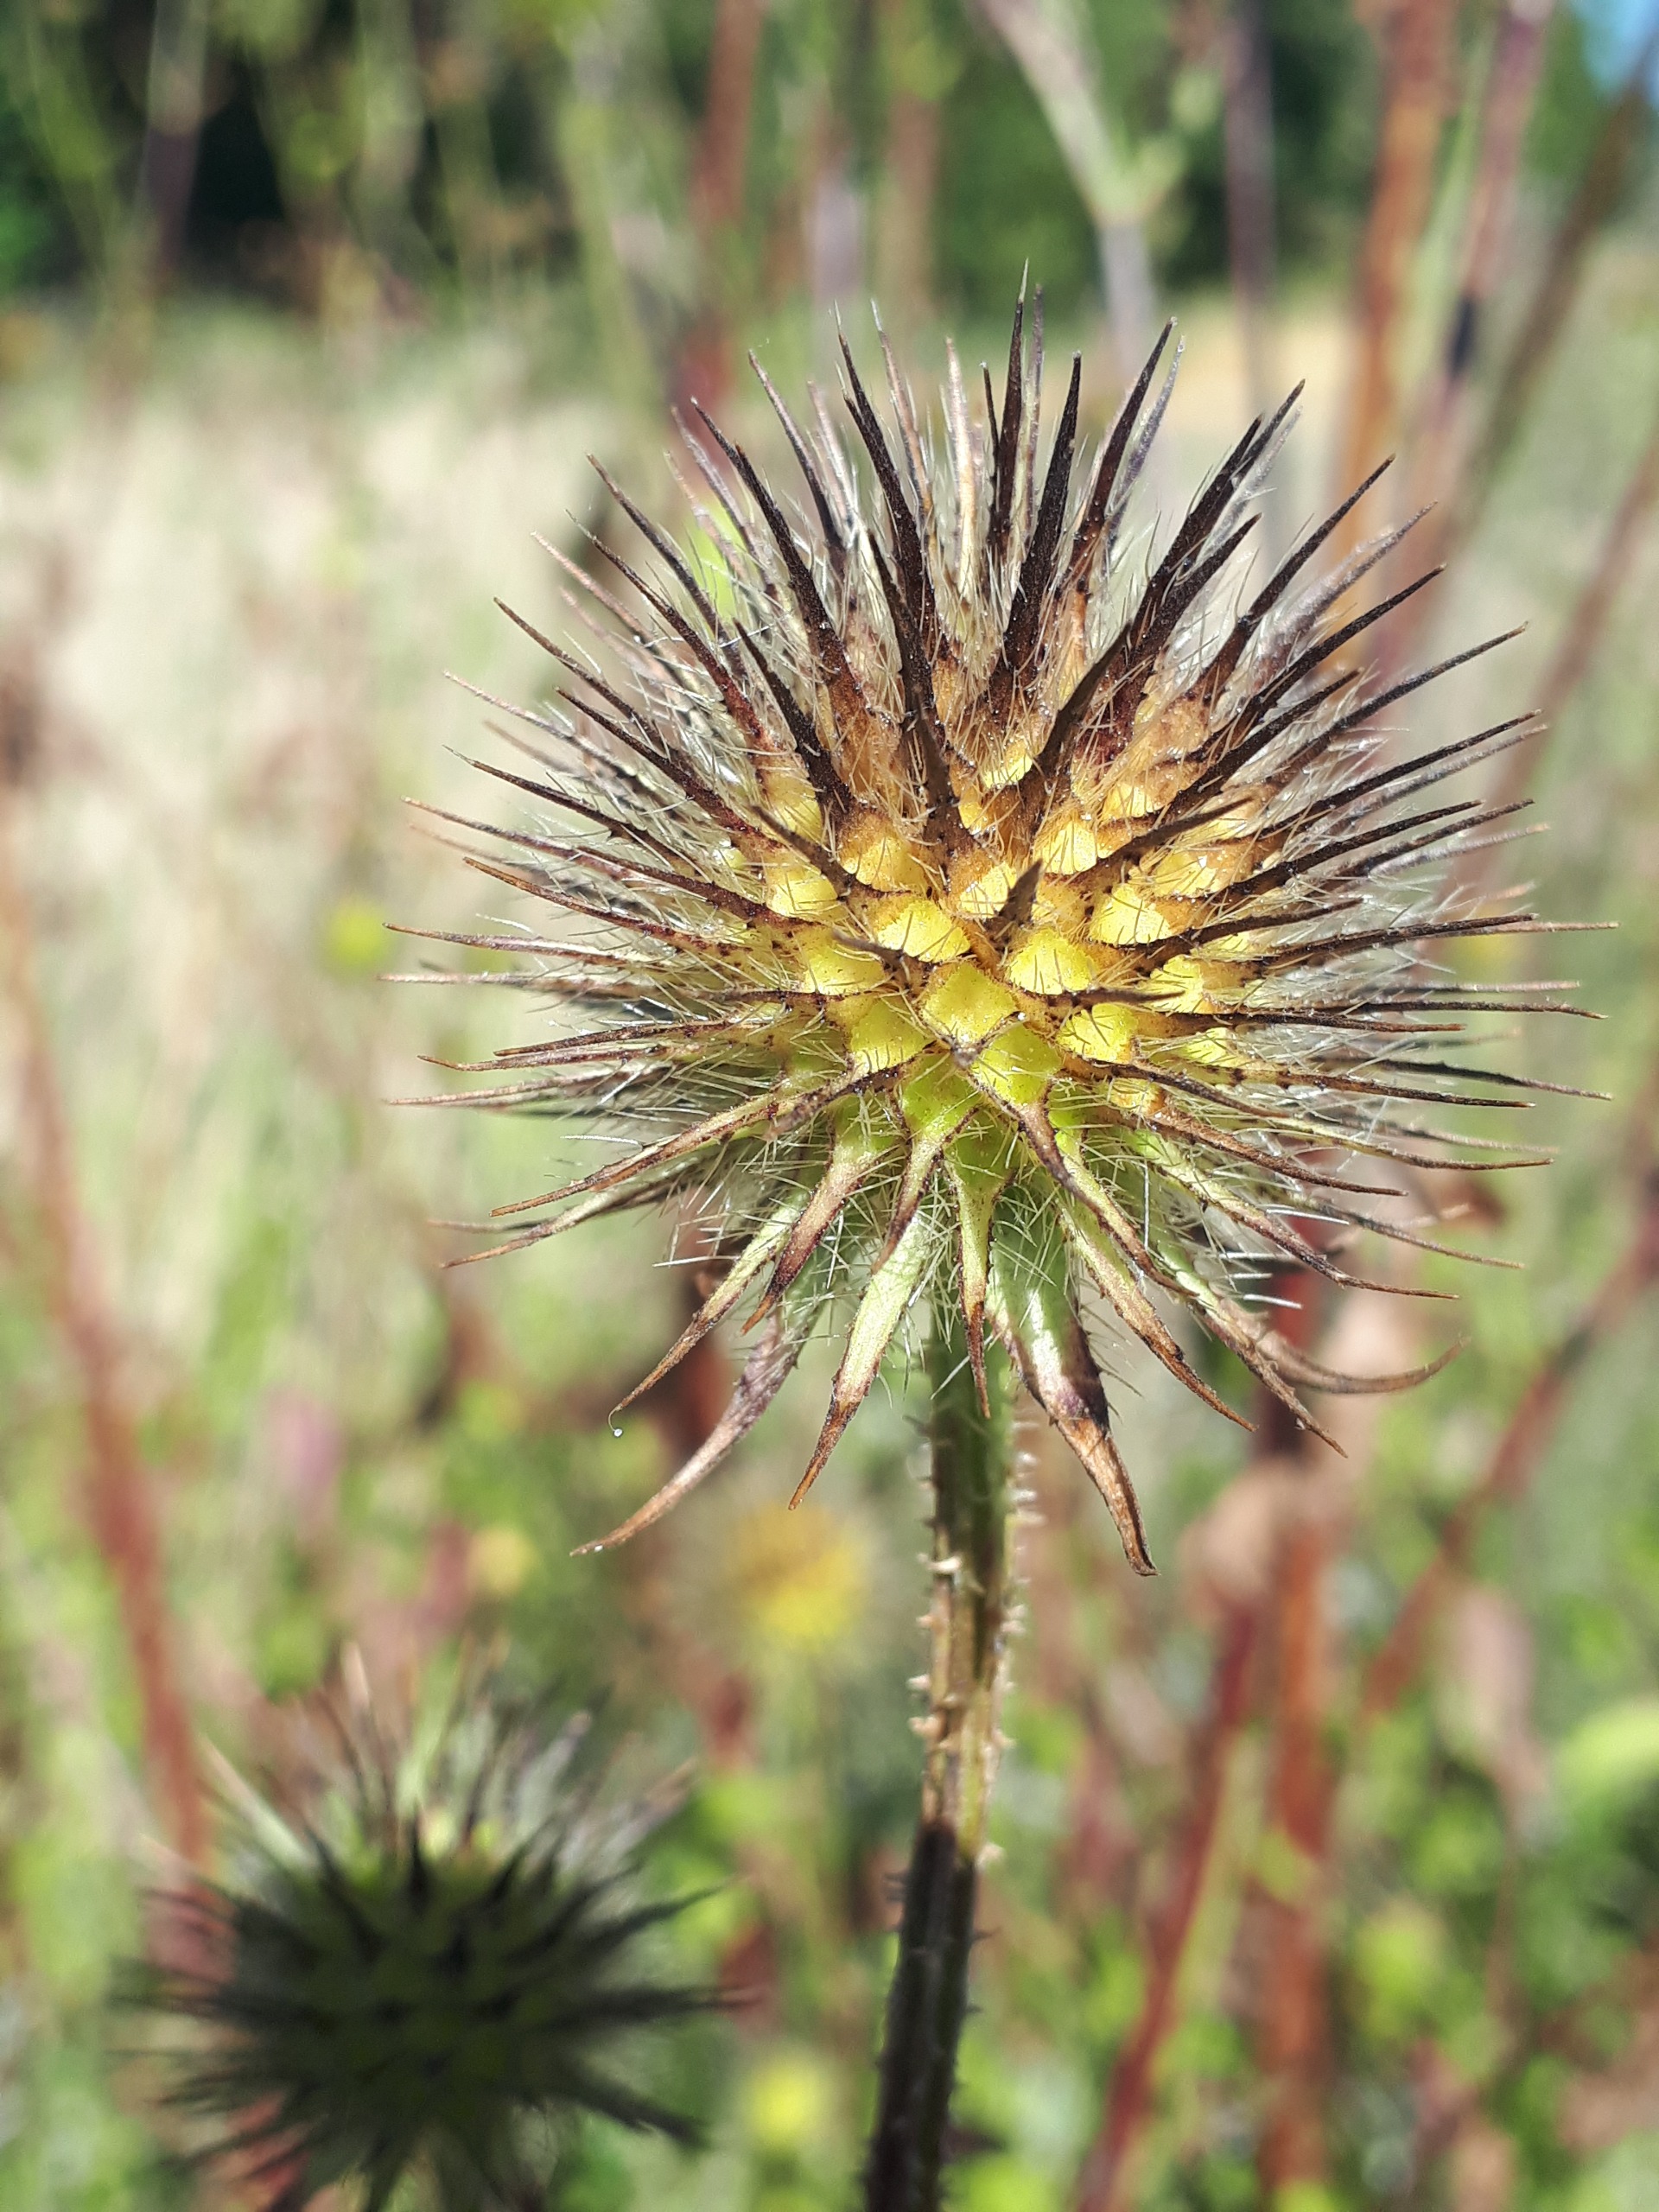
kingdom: Plantae
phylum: Tracheophyta
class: Magnoliopsida
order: Dipsacales
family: Caprifoliaceae
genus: Dipsacus
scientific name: Dipsacus strigosus
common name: Pindsvin-kartebolle
